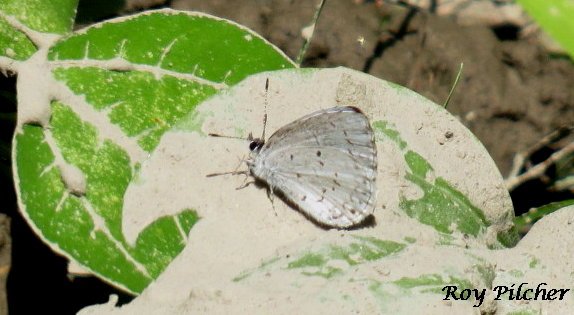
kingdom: Animalia
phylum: Arthropoda
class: Insecta
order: Lepidoptera
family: Lycaenidae
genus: Cyaniris
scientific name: Cyaniris neglecta
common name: Summer Azure
